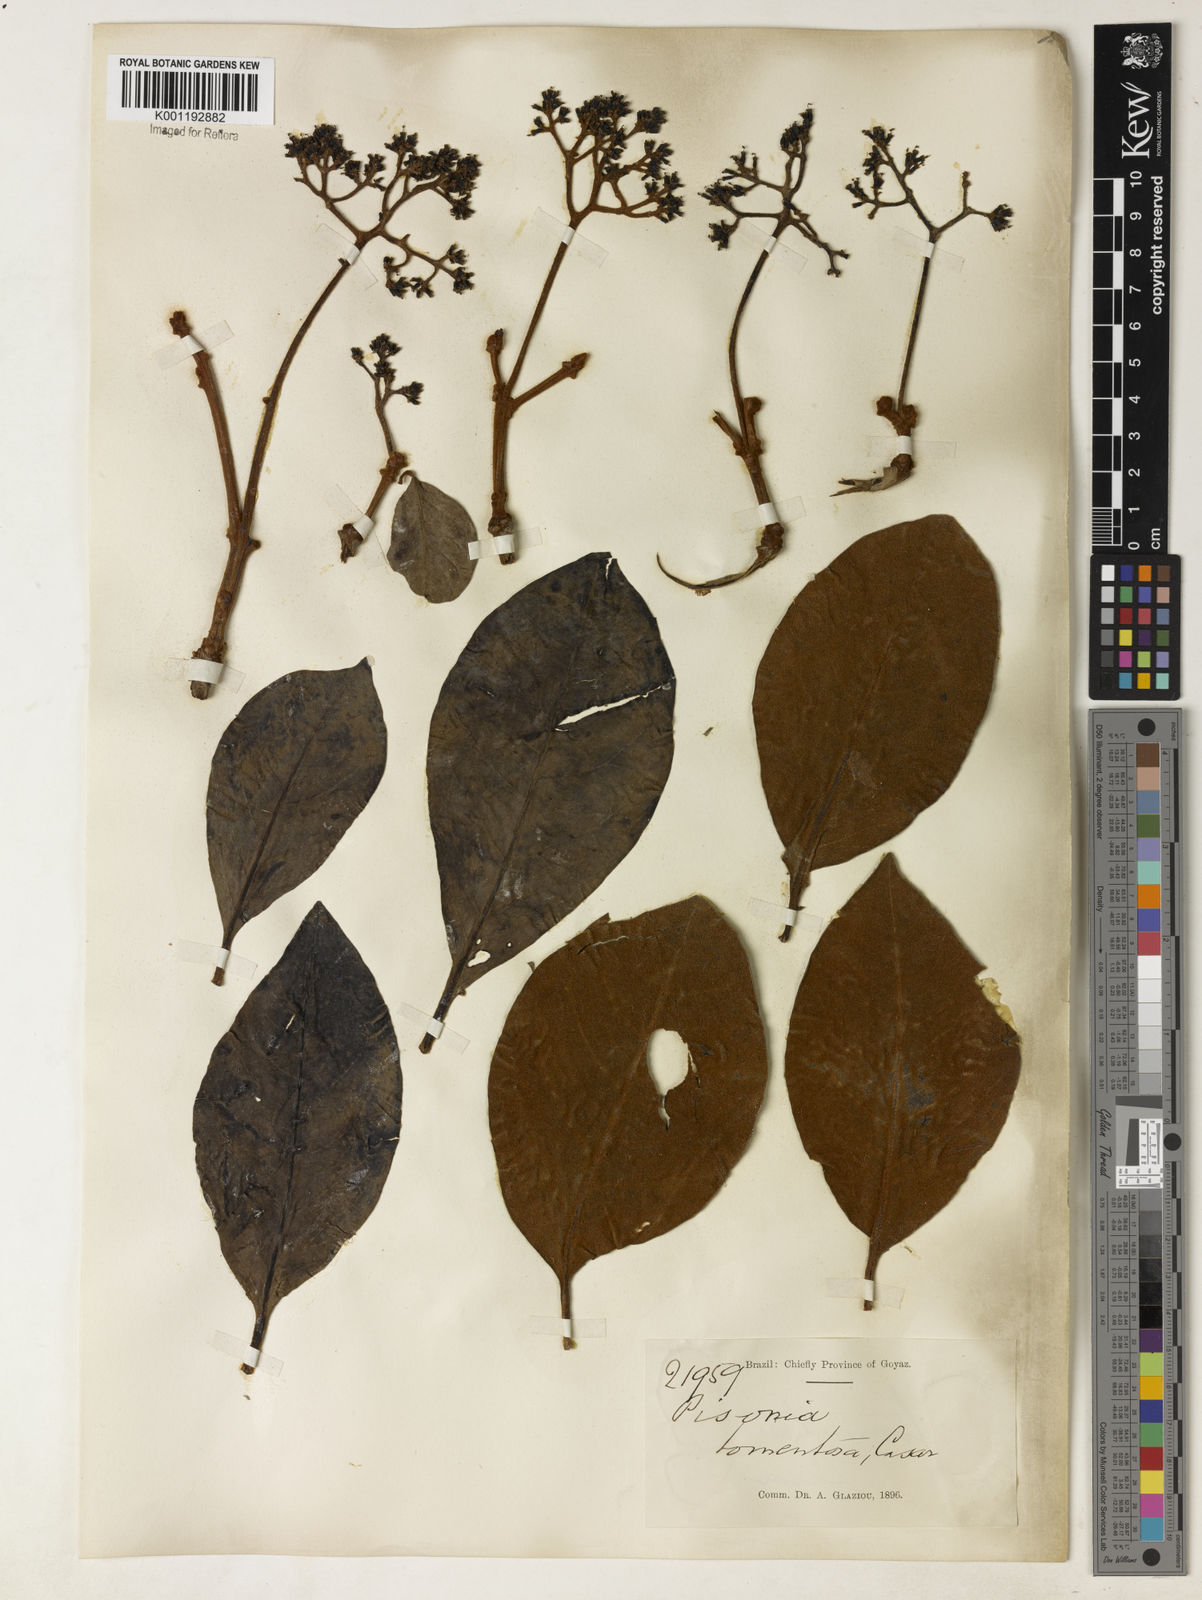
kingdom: Plantae
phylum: Tracheophyta
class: Magnoliopsida
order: Caryophyllales
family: Nyctaginaceae
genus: Guapira
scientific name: Guapira noxia
